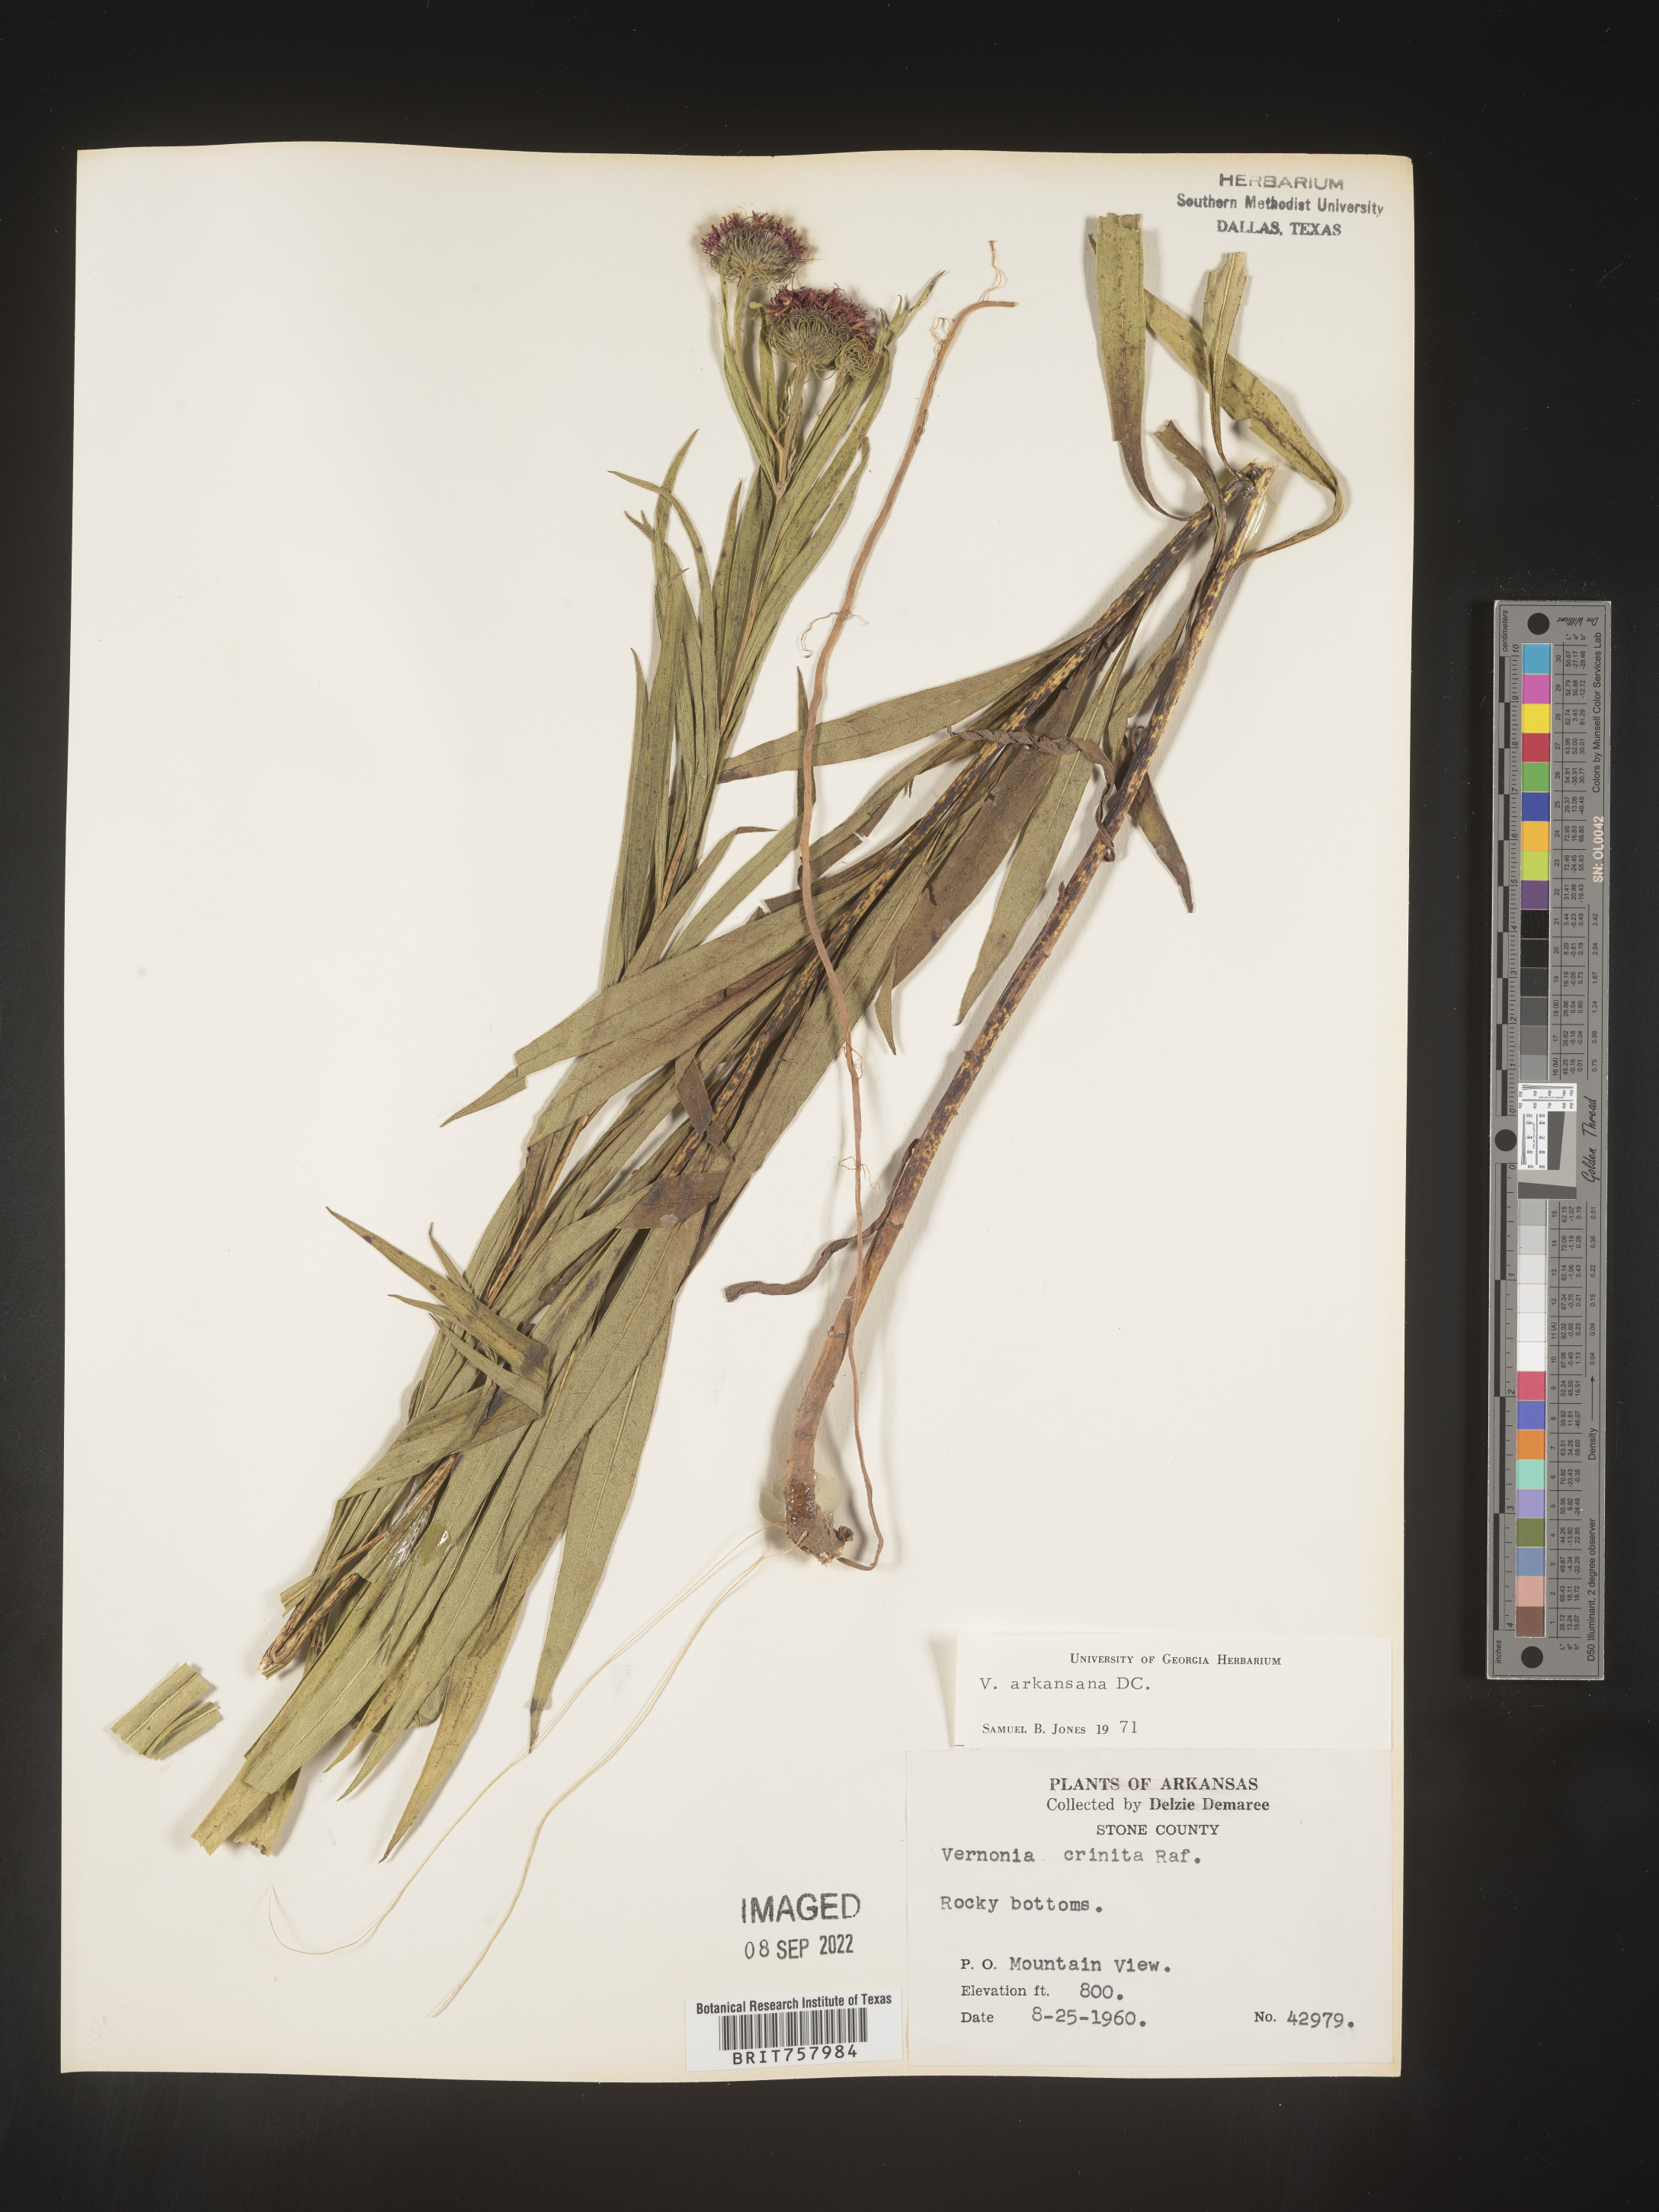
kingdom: Plantae
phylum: Tracheophyta
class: Magnoliopsida
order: Asterales
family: Asteraceae
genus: Vernonia
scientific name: Vernonia arkansana
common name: Ozark ironweed
